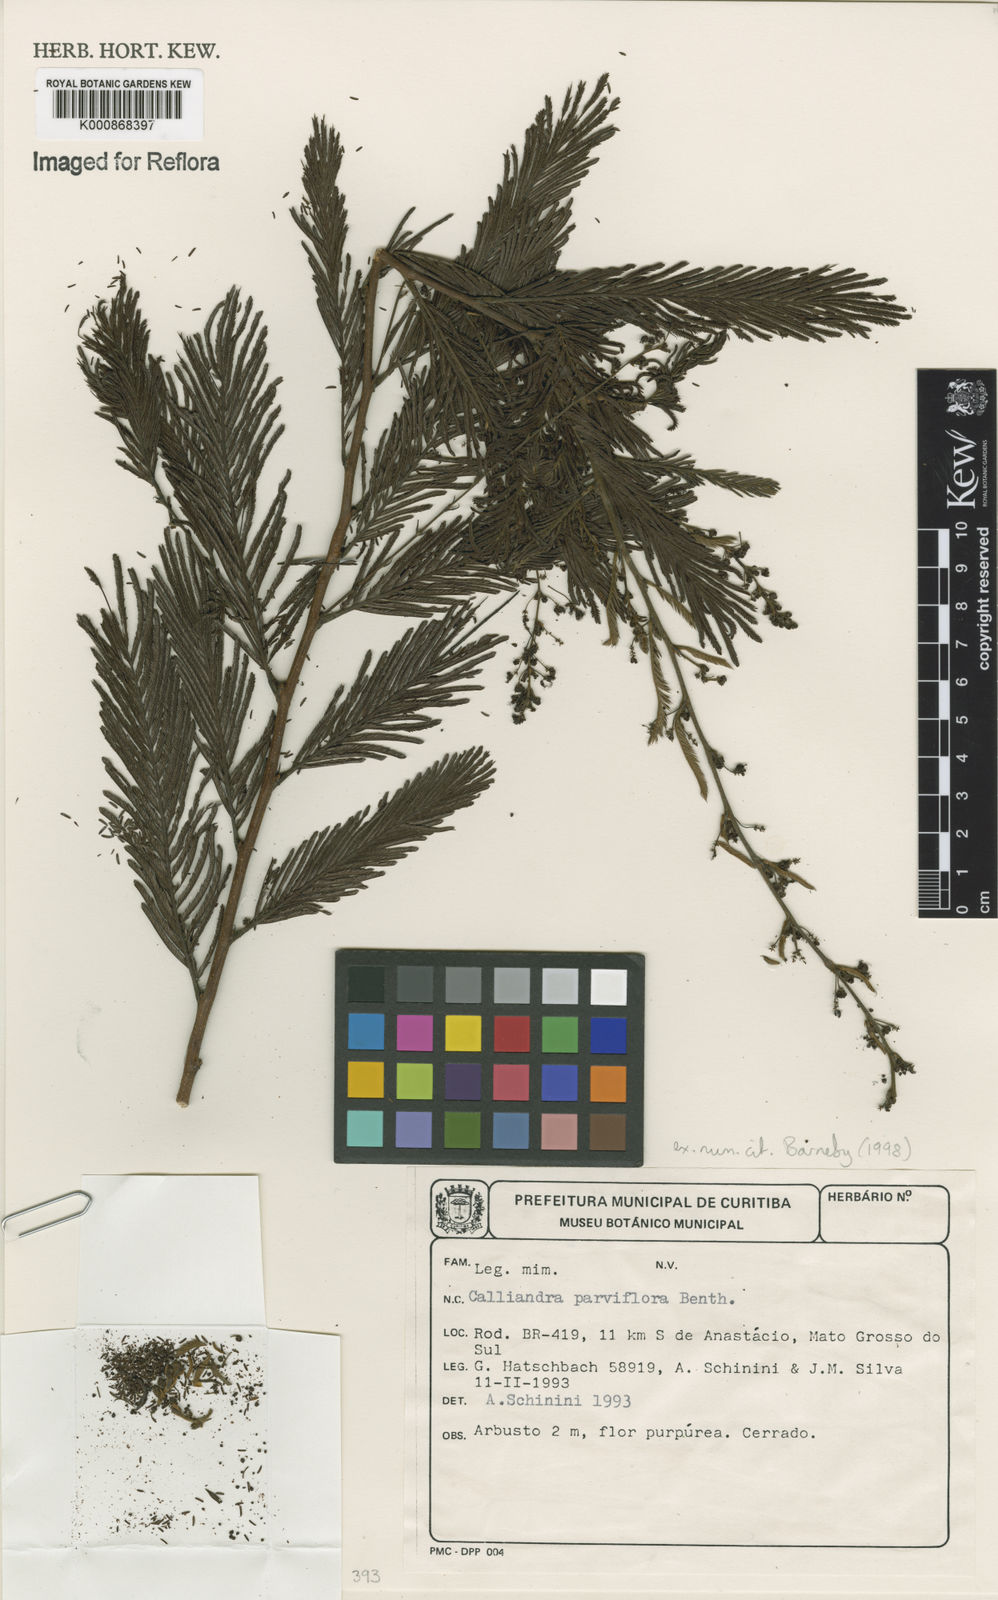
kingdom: Plantae
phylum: Tracheophyta
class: Magnoliopsida
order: Fabales
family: Fabaceae
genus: Calliandra
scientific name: Calliandra parviflora
